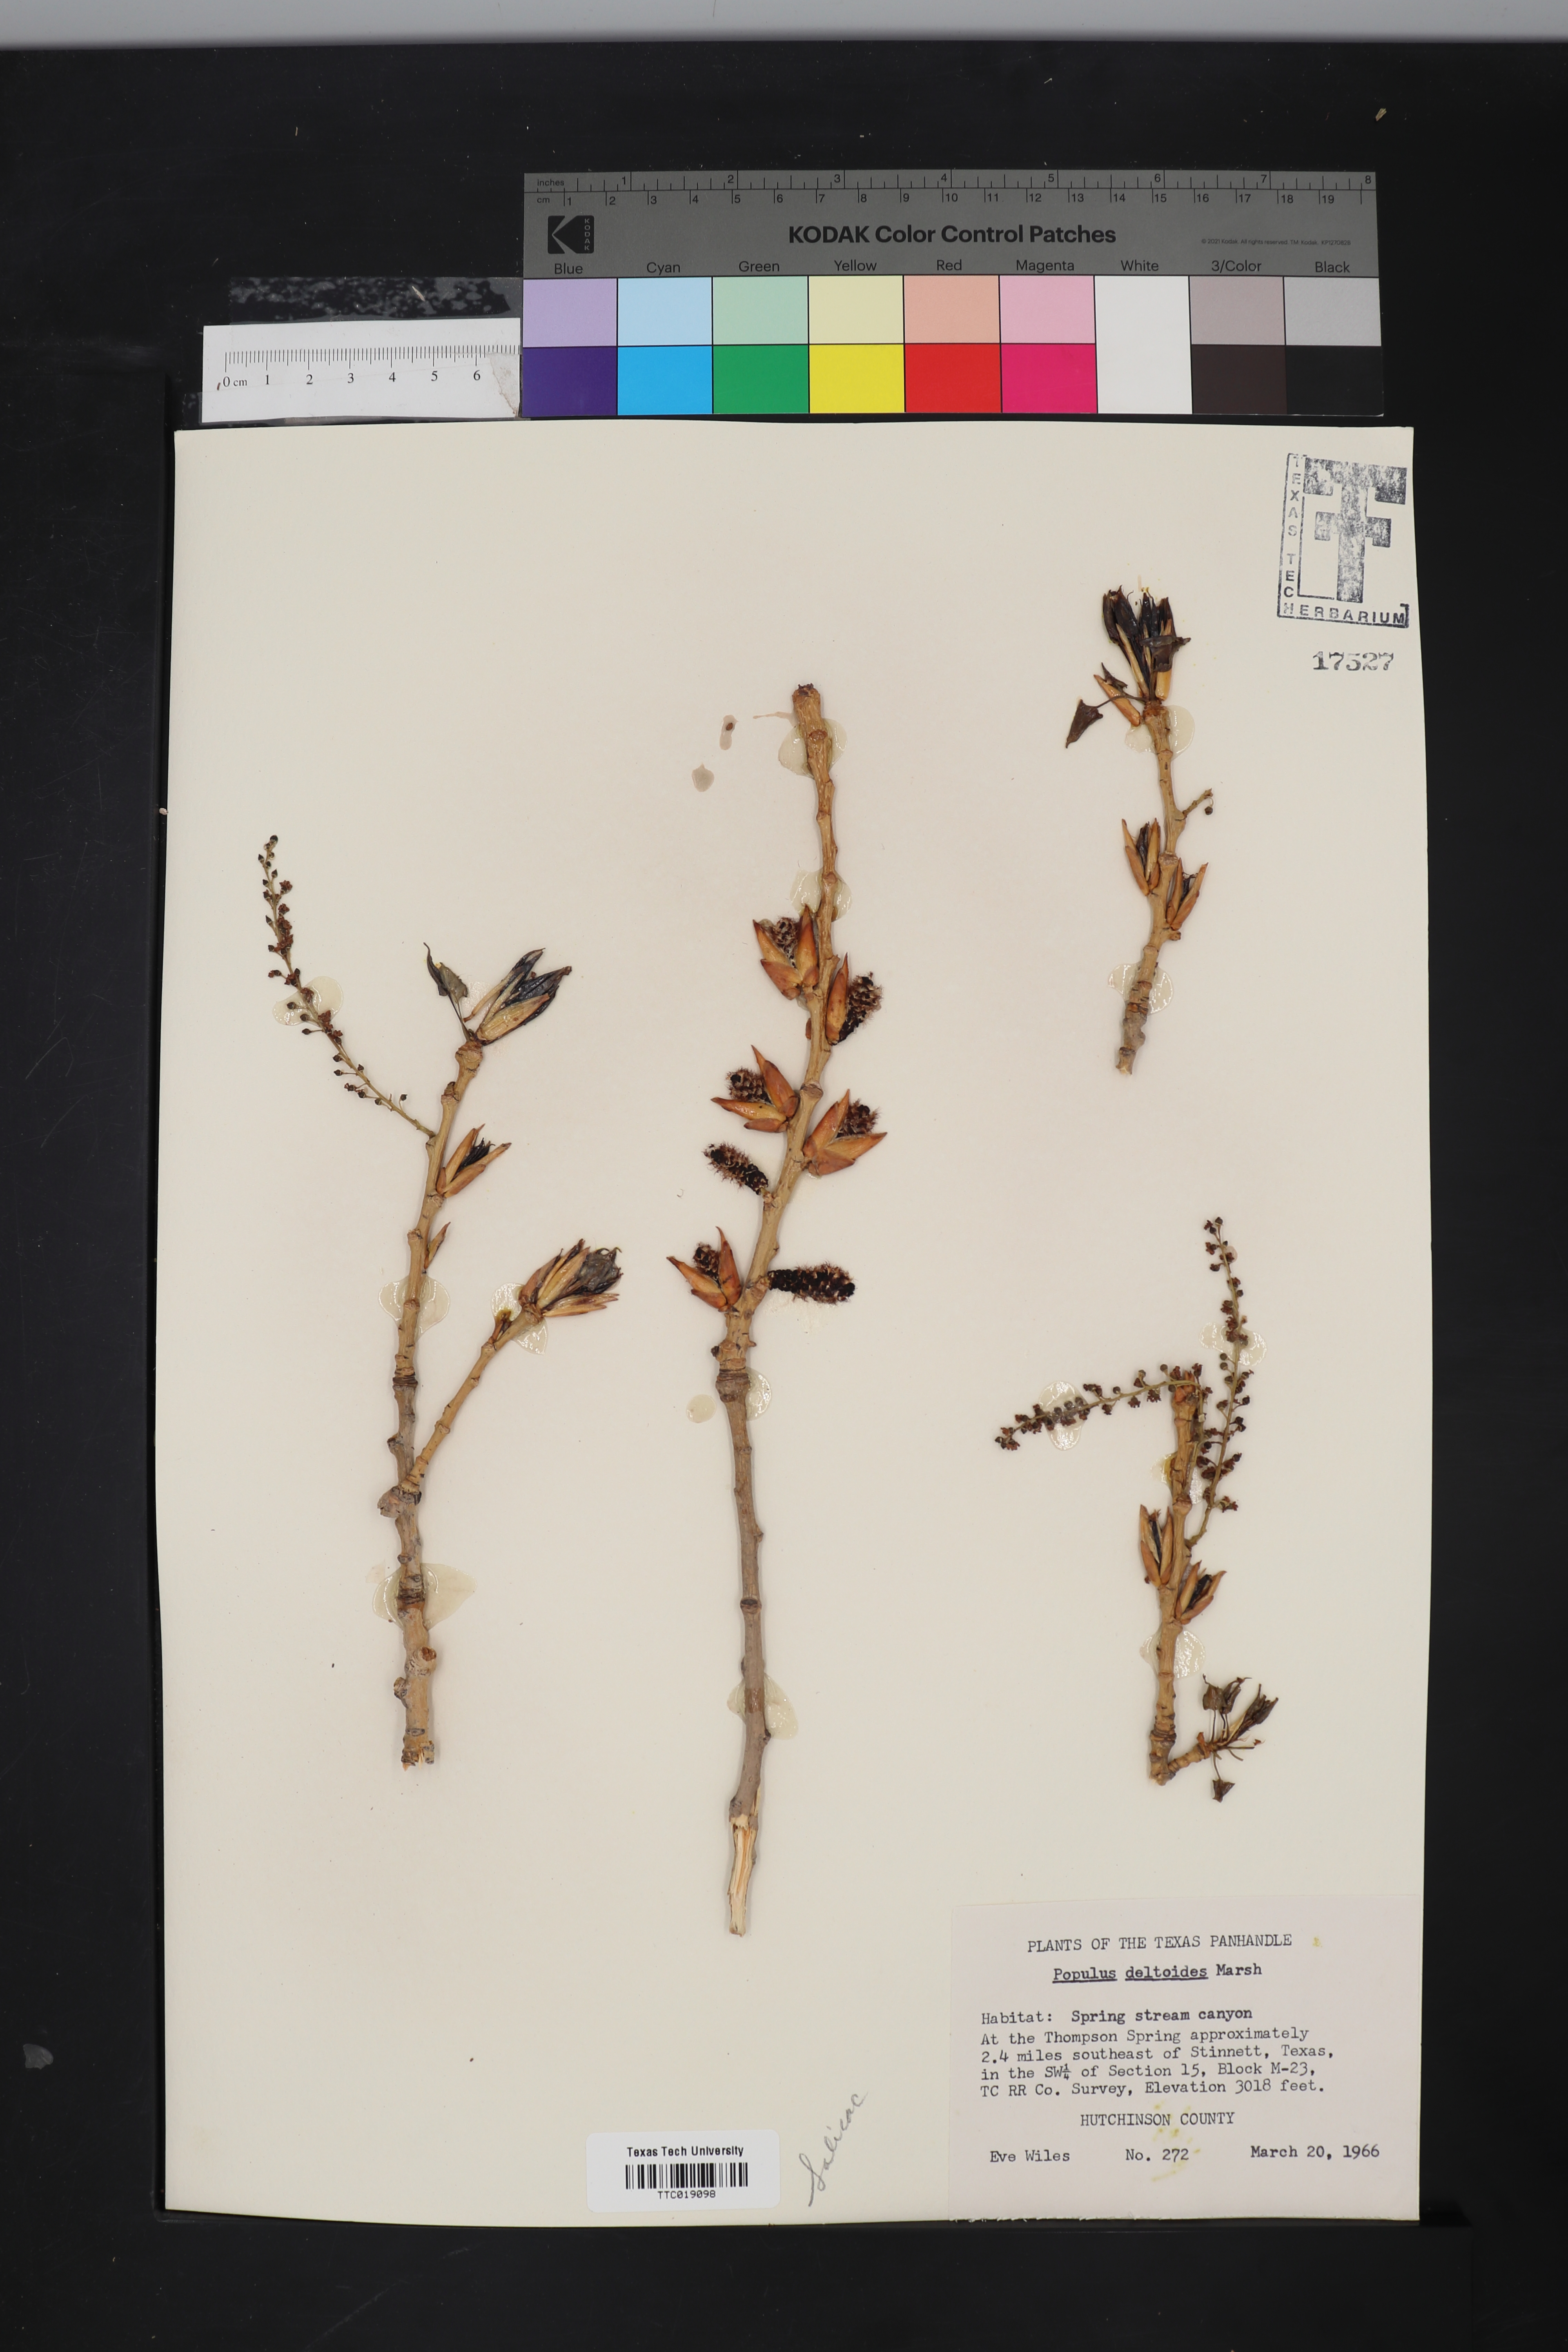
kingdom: Plantae
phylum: Tracheophyta
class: Magnoliopsida
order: Malpighiales
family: Salicaceae
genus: Populus
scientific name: Populus deltoides
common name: Eastern cottonwood
